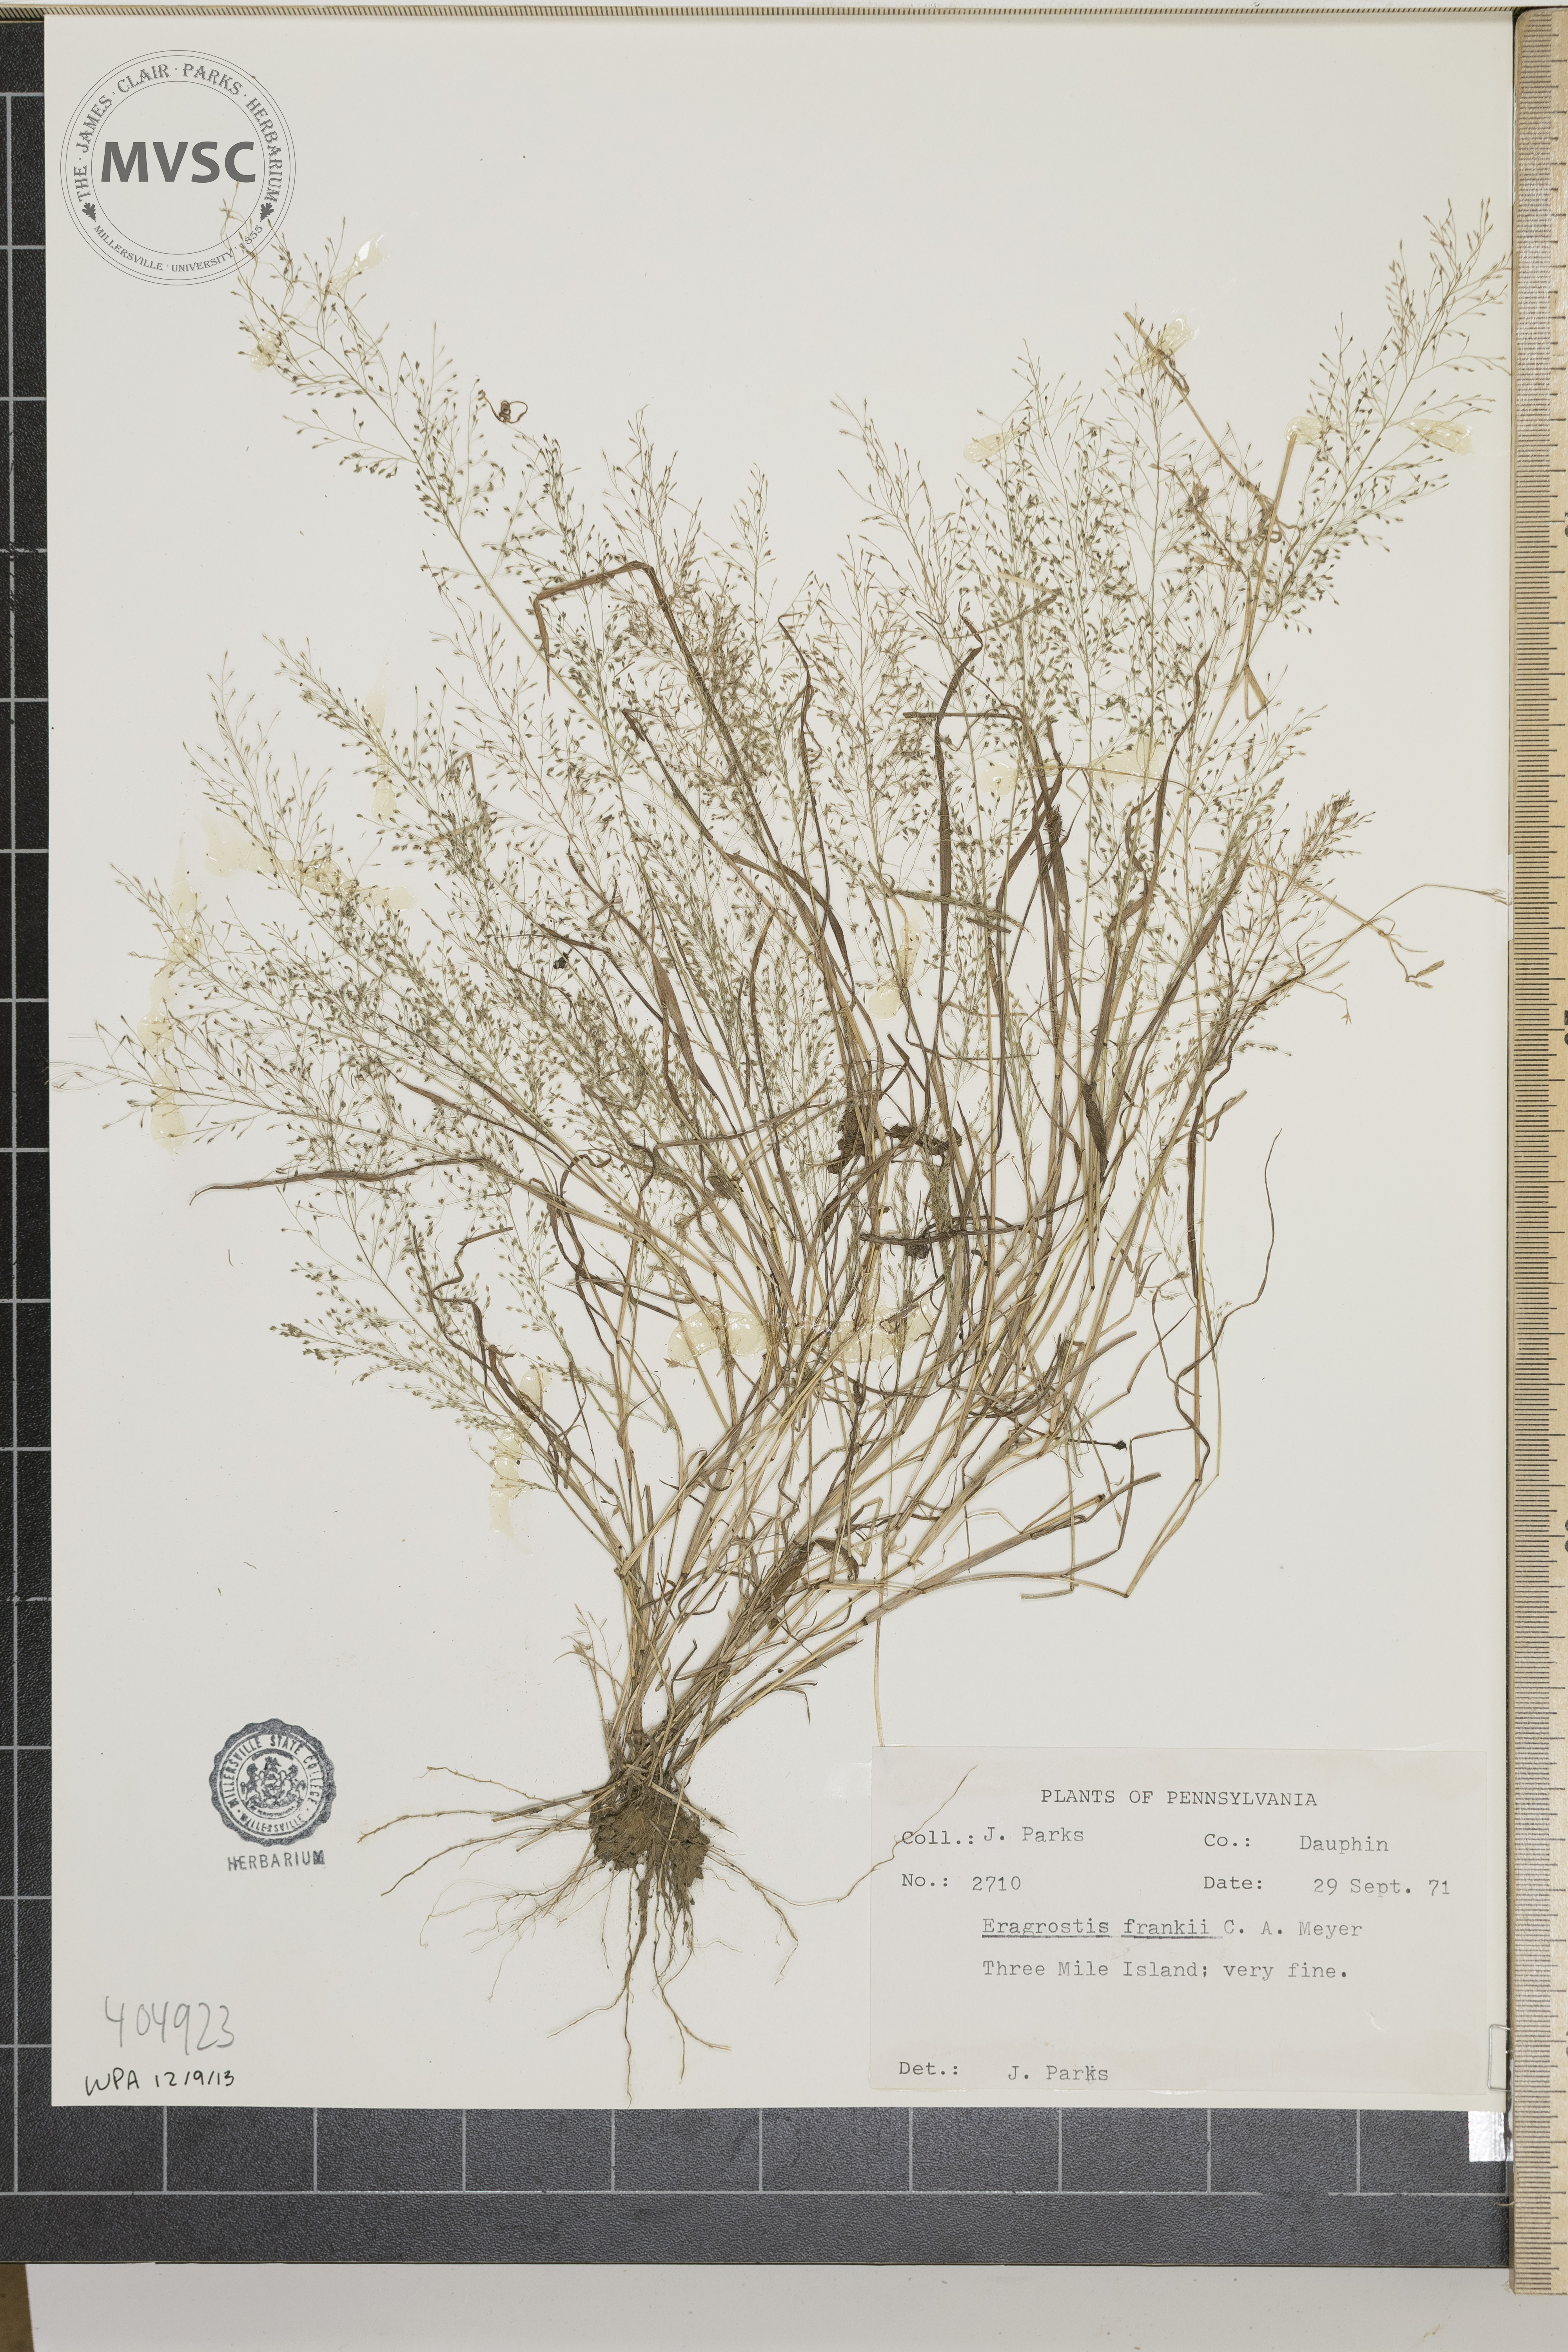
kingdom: Plantae
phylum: Tracheophyta
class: Liliopsida
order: Poales
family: Poaceae
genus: Eragrostis
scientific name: Eragrostis frankii
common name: Frank's lovegrass
